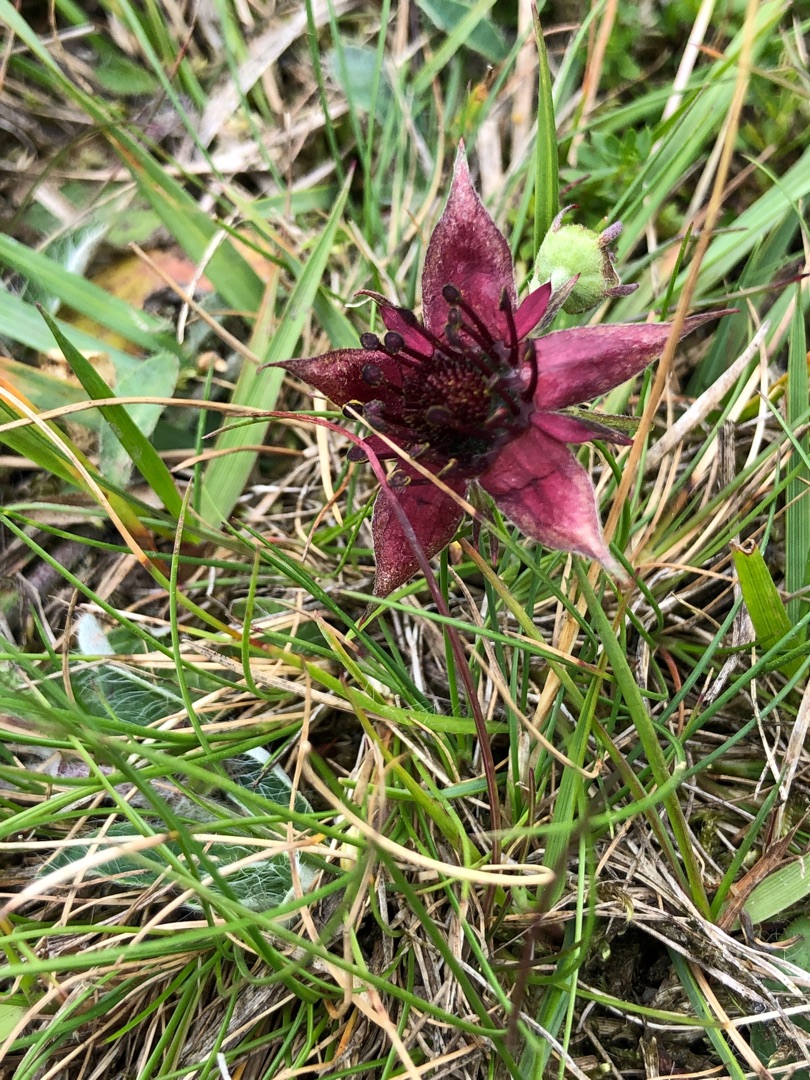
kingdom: Plantae
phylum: Tracheophyta
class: Magnoliopsida
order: Rosales
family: Rosaceae
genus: Comarum
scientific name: Comarum palustre
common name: Kragefod
